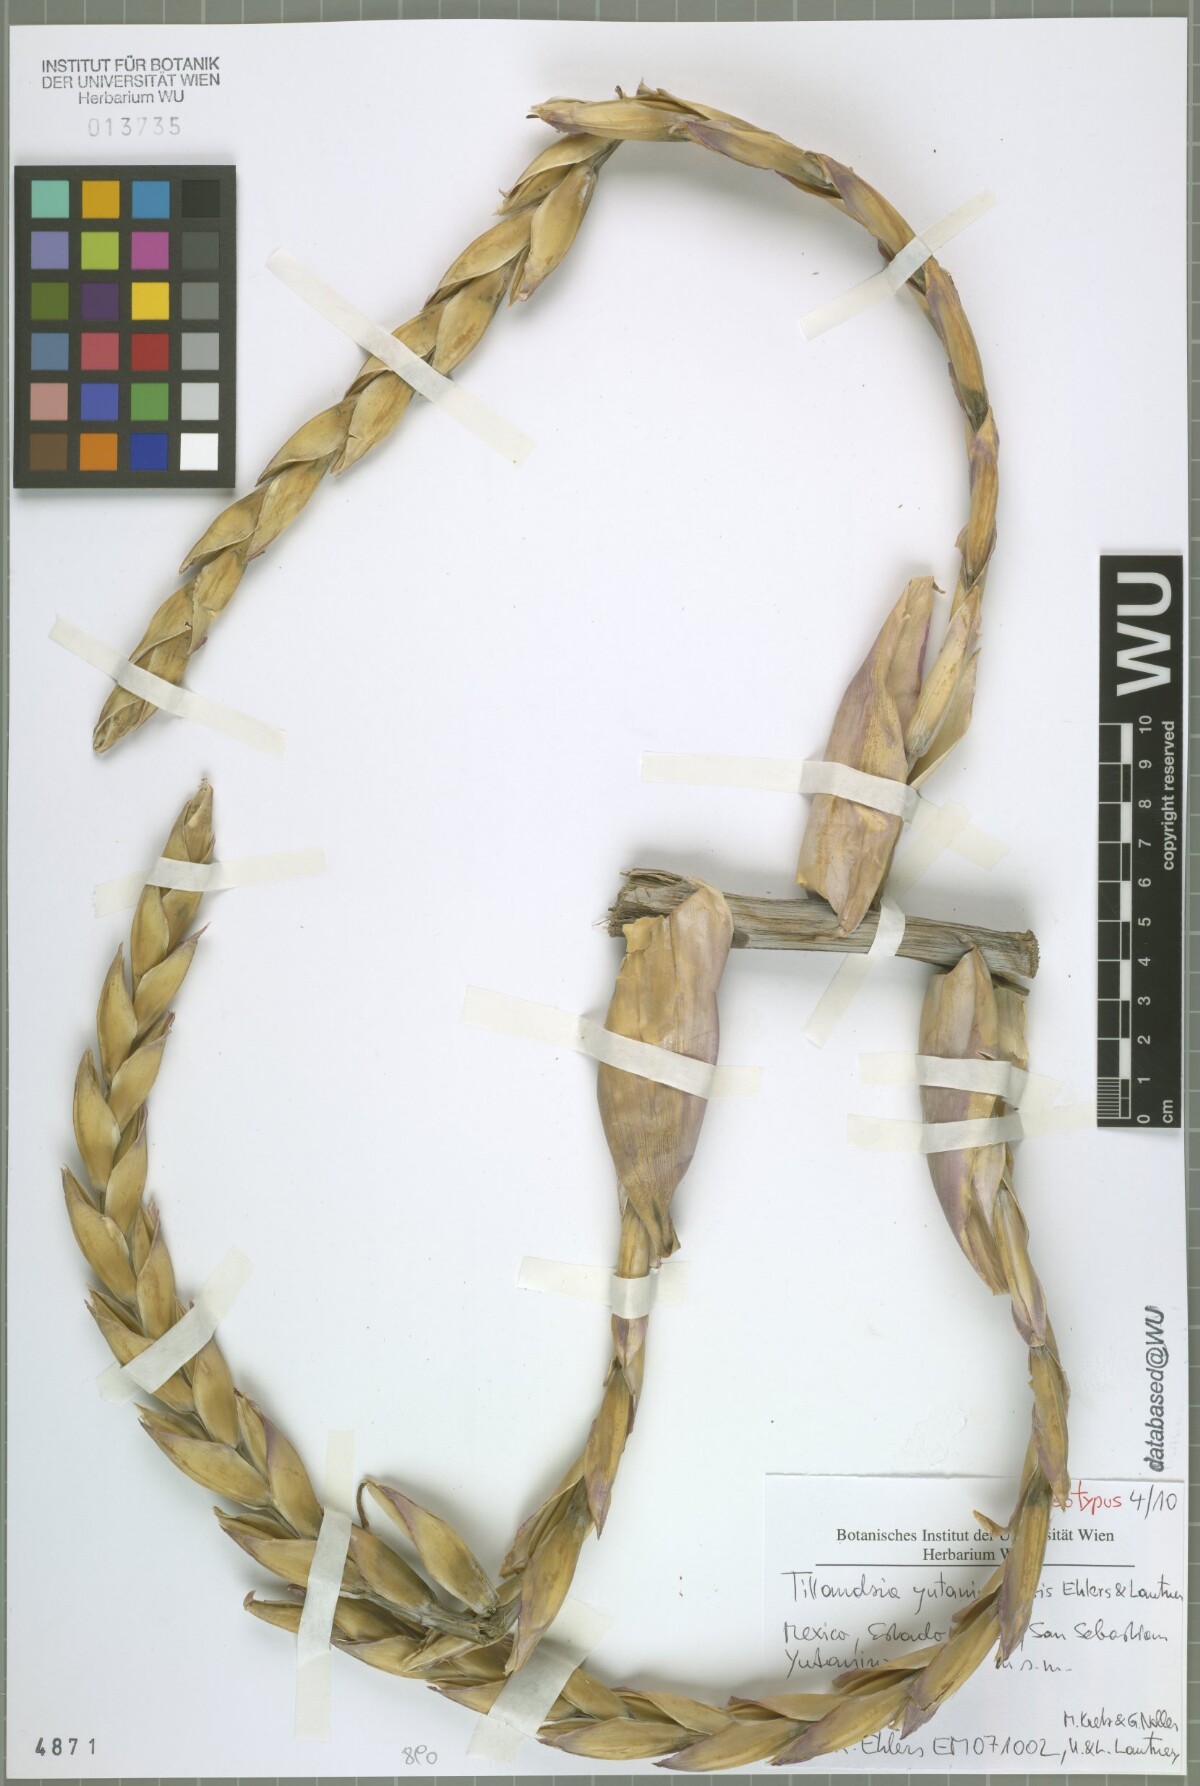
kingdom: Plantae
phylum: Tracheophyta
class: Liliopsida
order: Poales
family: Bromeliaceae
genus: Tillandsia
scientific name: Tillandsia yutaninoensis
